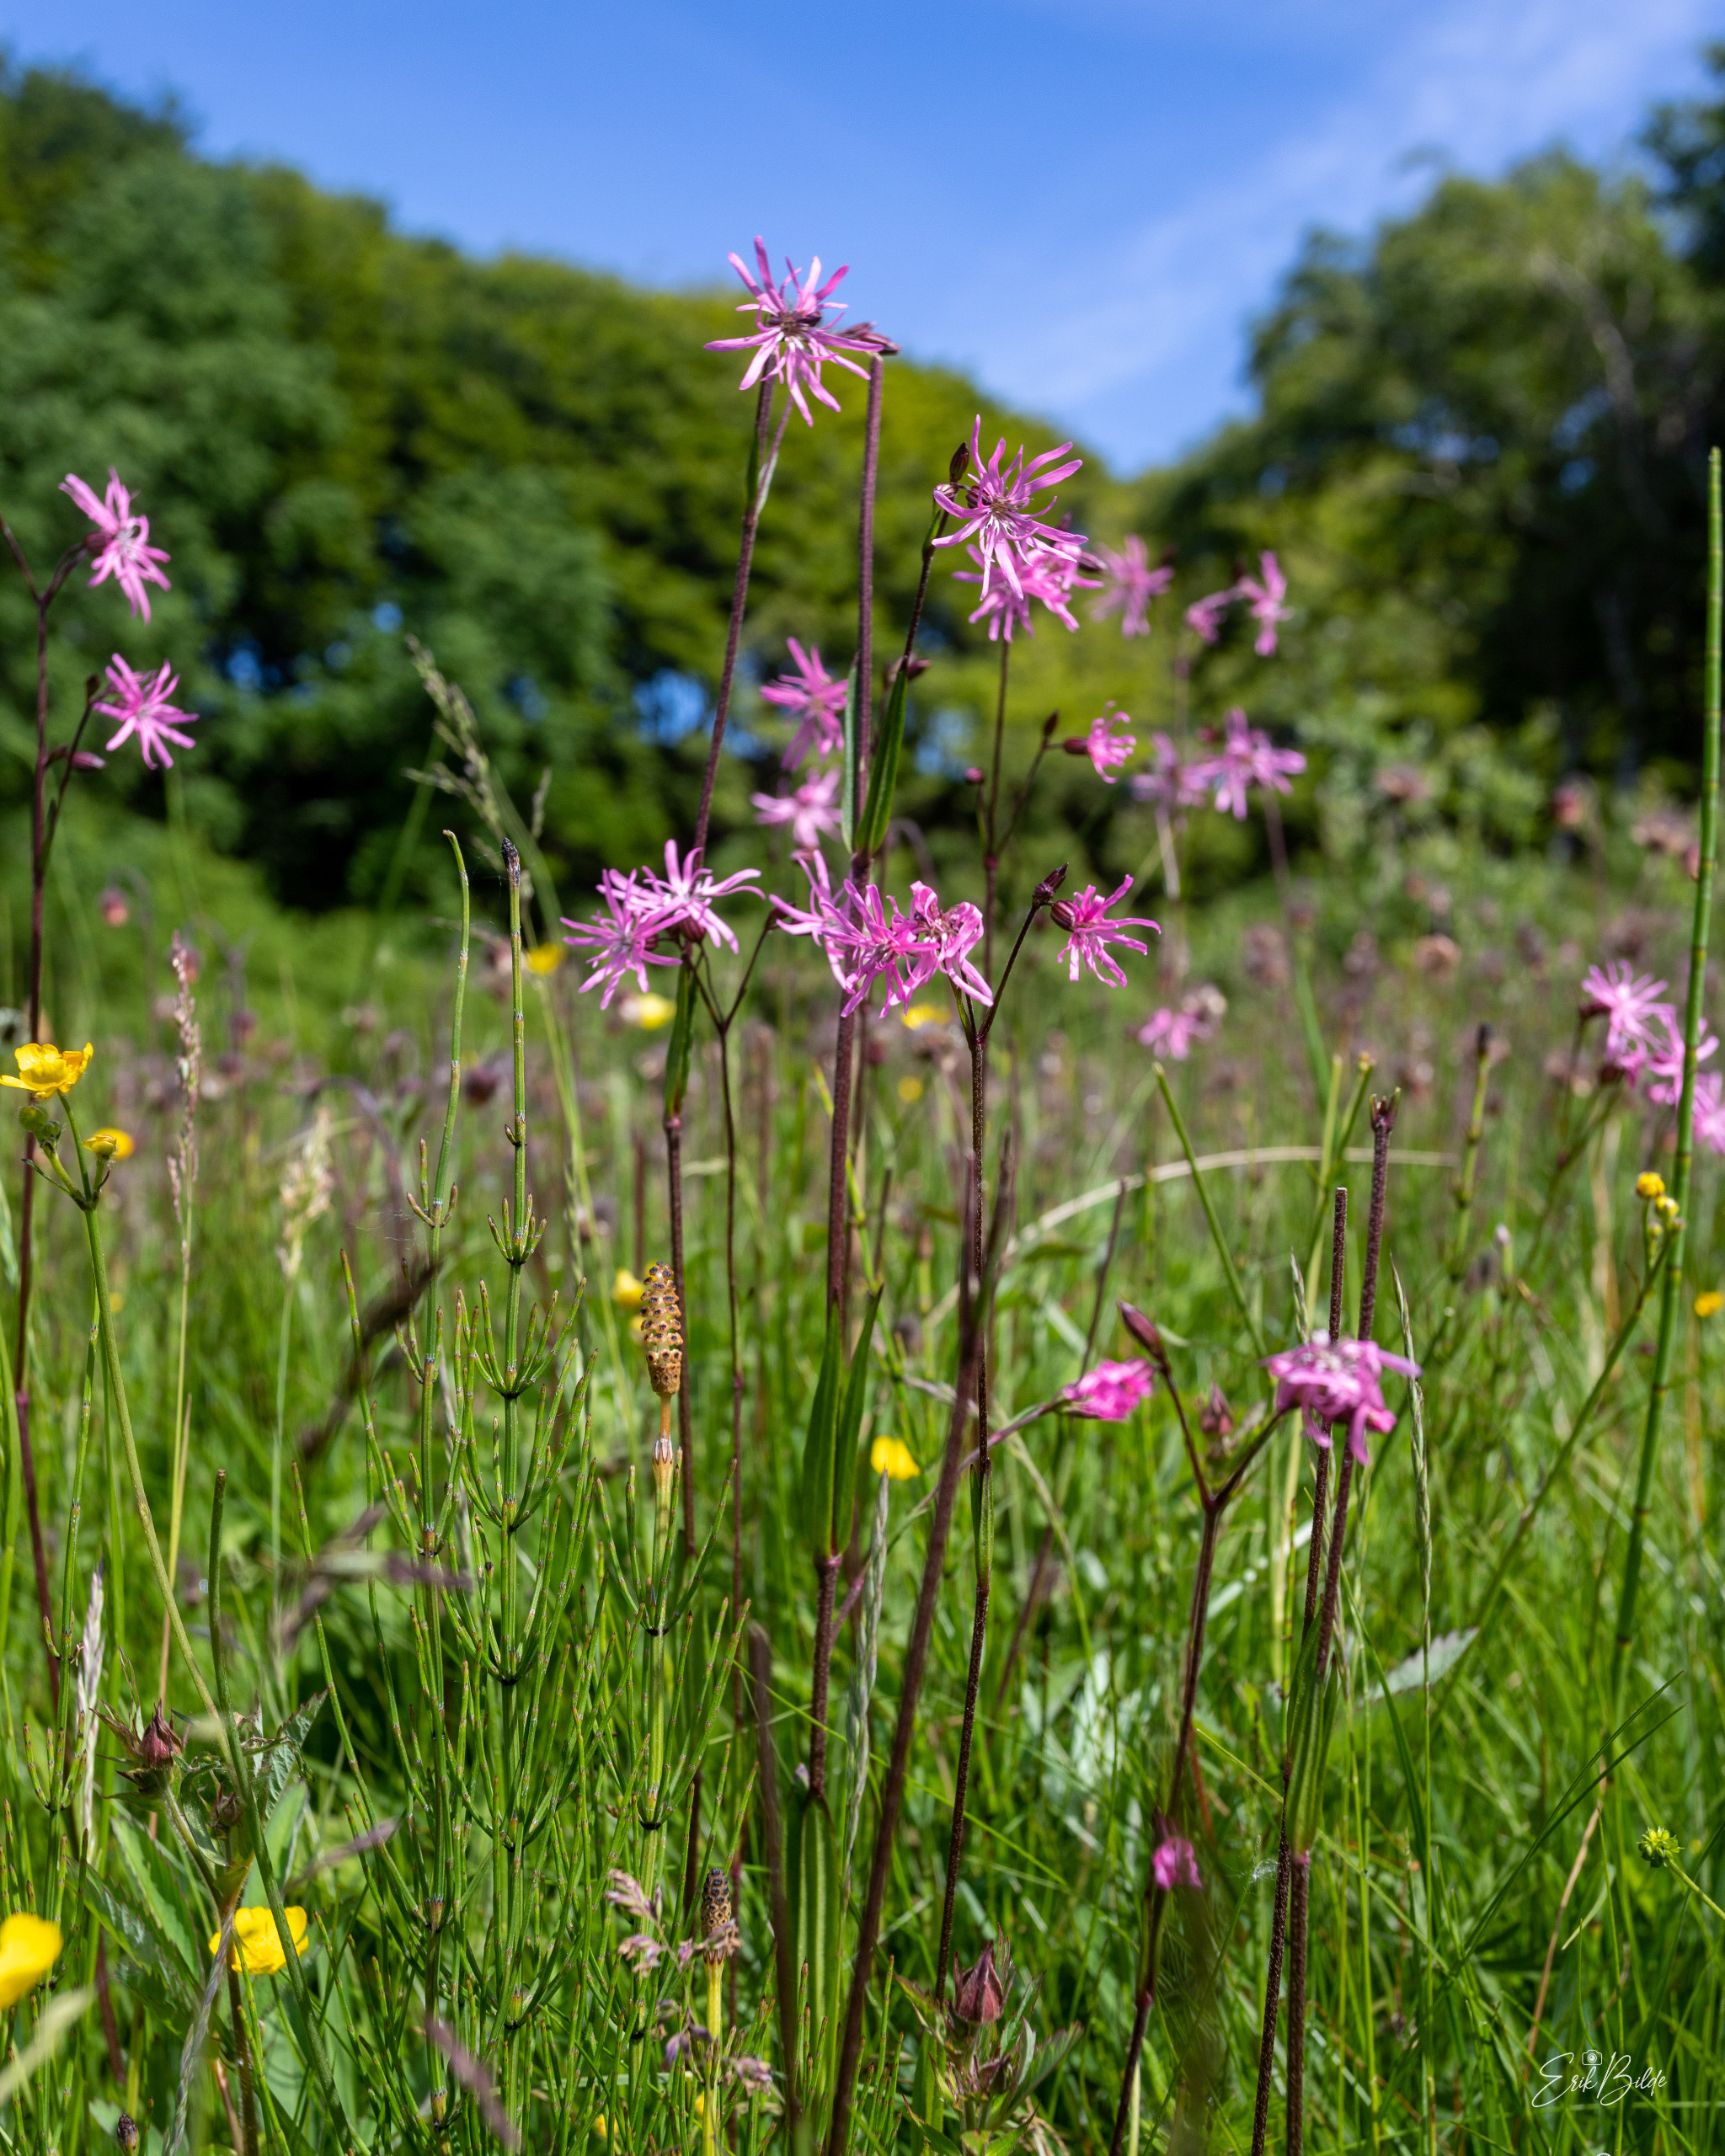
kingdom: Plantae
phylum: Tracheophyta
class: Magnoliopsida
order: Caryophyllales
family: Caryophyllaceae
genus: Silene
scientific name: Silene flos-cuculi
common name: Trævlekrone
